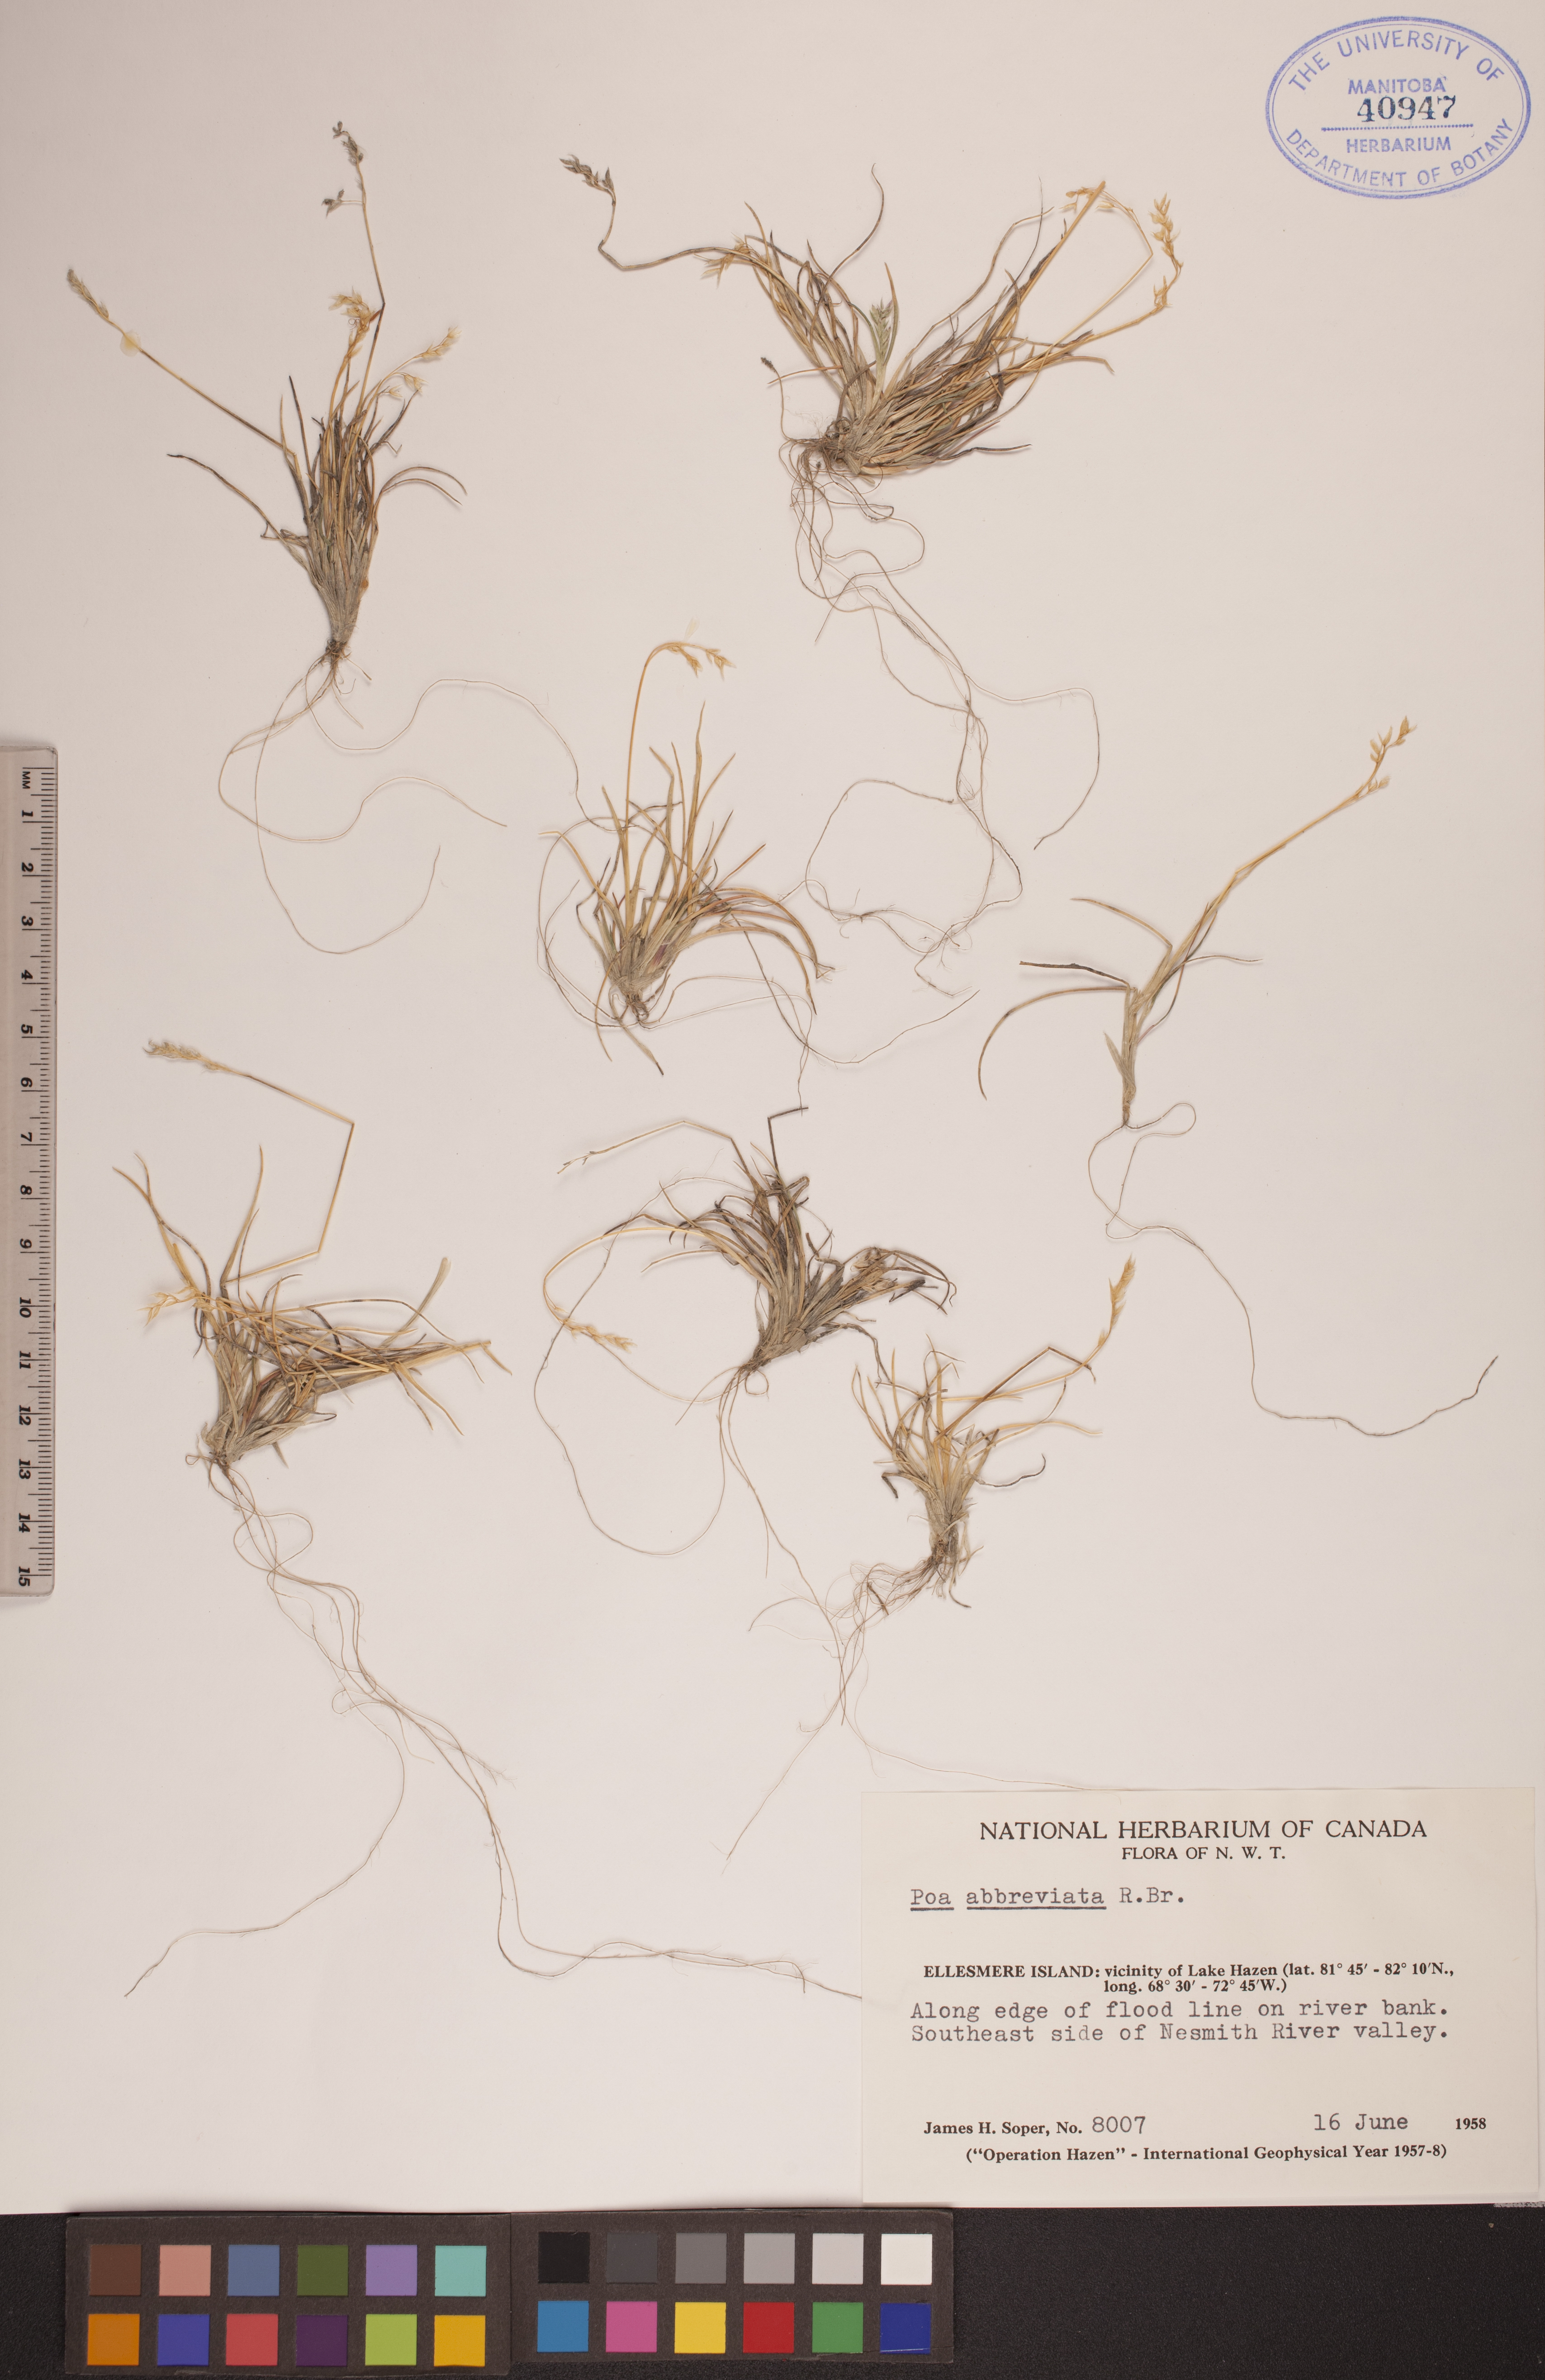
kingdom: Plantae
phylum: Tracheophyta
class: Liliopsida
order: Poales
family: Poaceae
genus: Poa
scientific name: Poa abbreviata
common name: Abbreviated bluegrass
